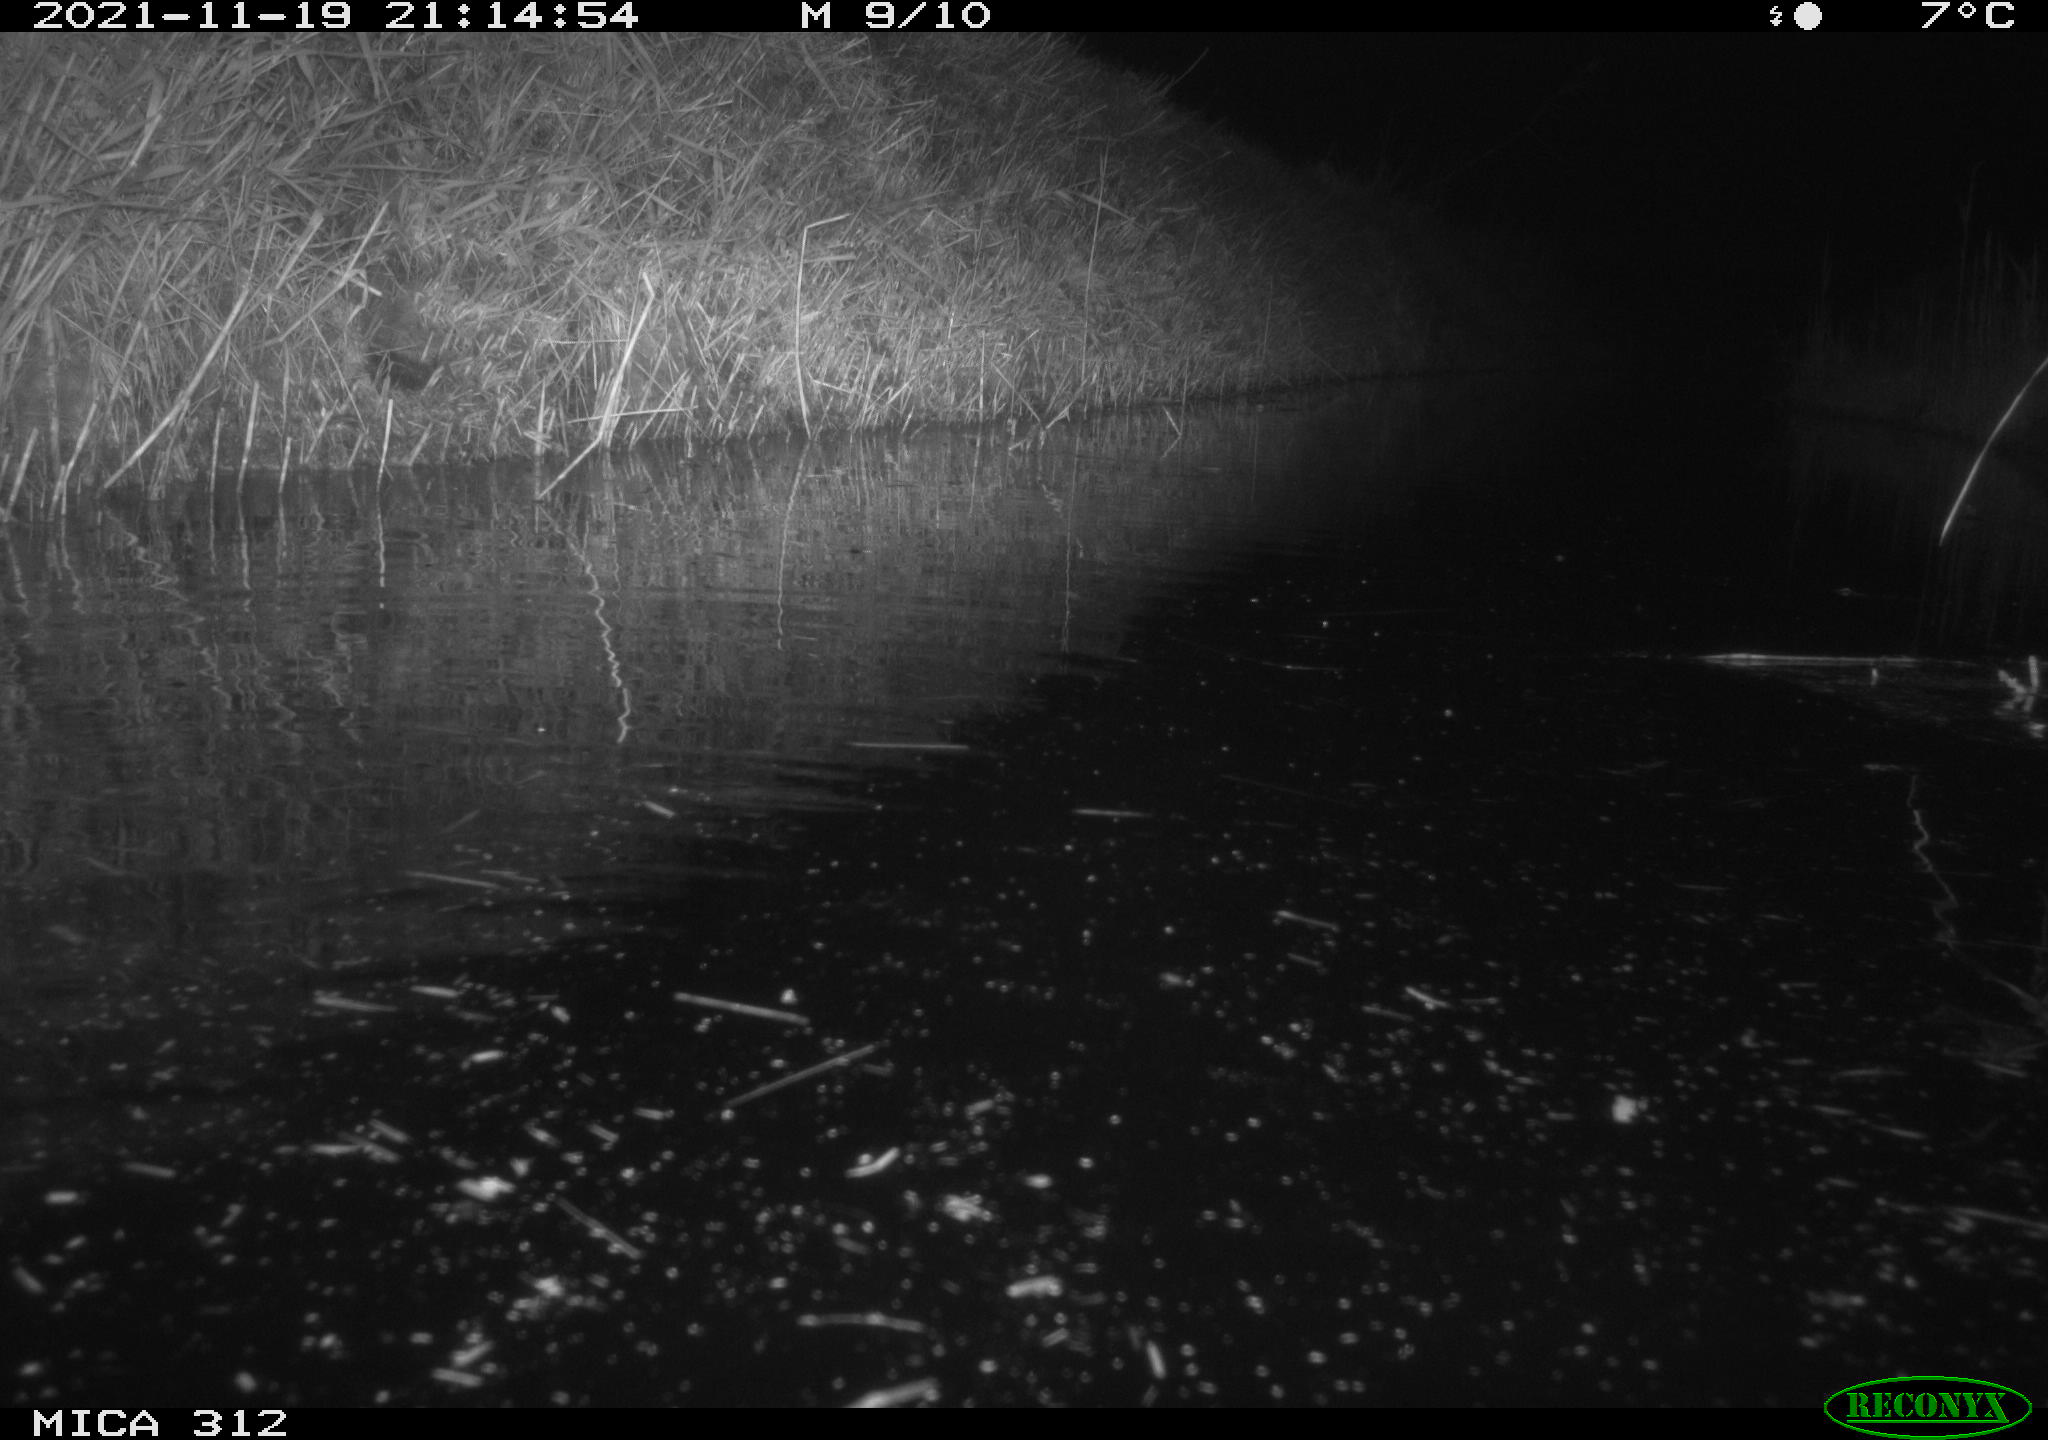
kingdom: Animalia
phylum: Chordata
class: Mammalia
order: Rodentia
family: Muridae
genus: Rattus
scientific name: Rattus norvegicus
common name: Brown rat
